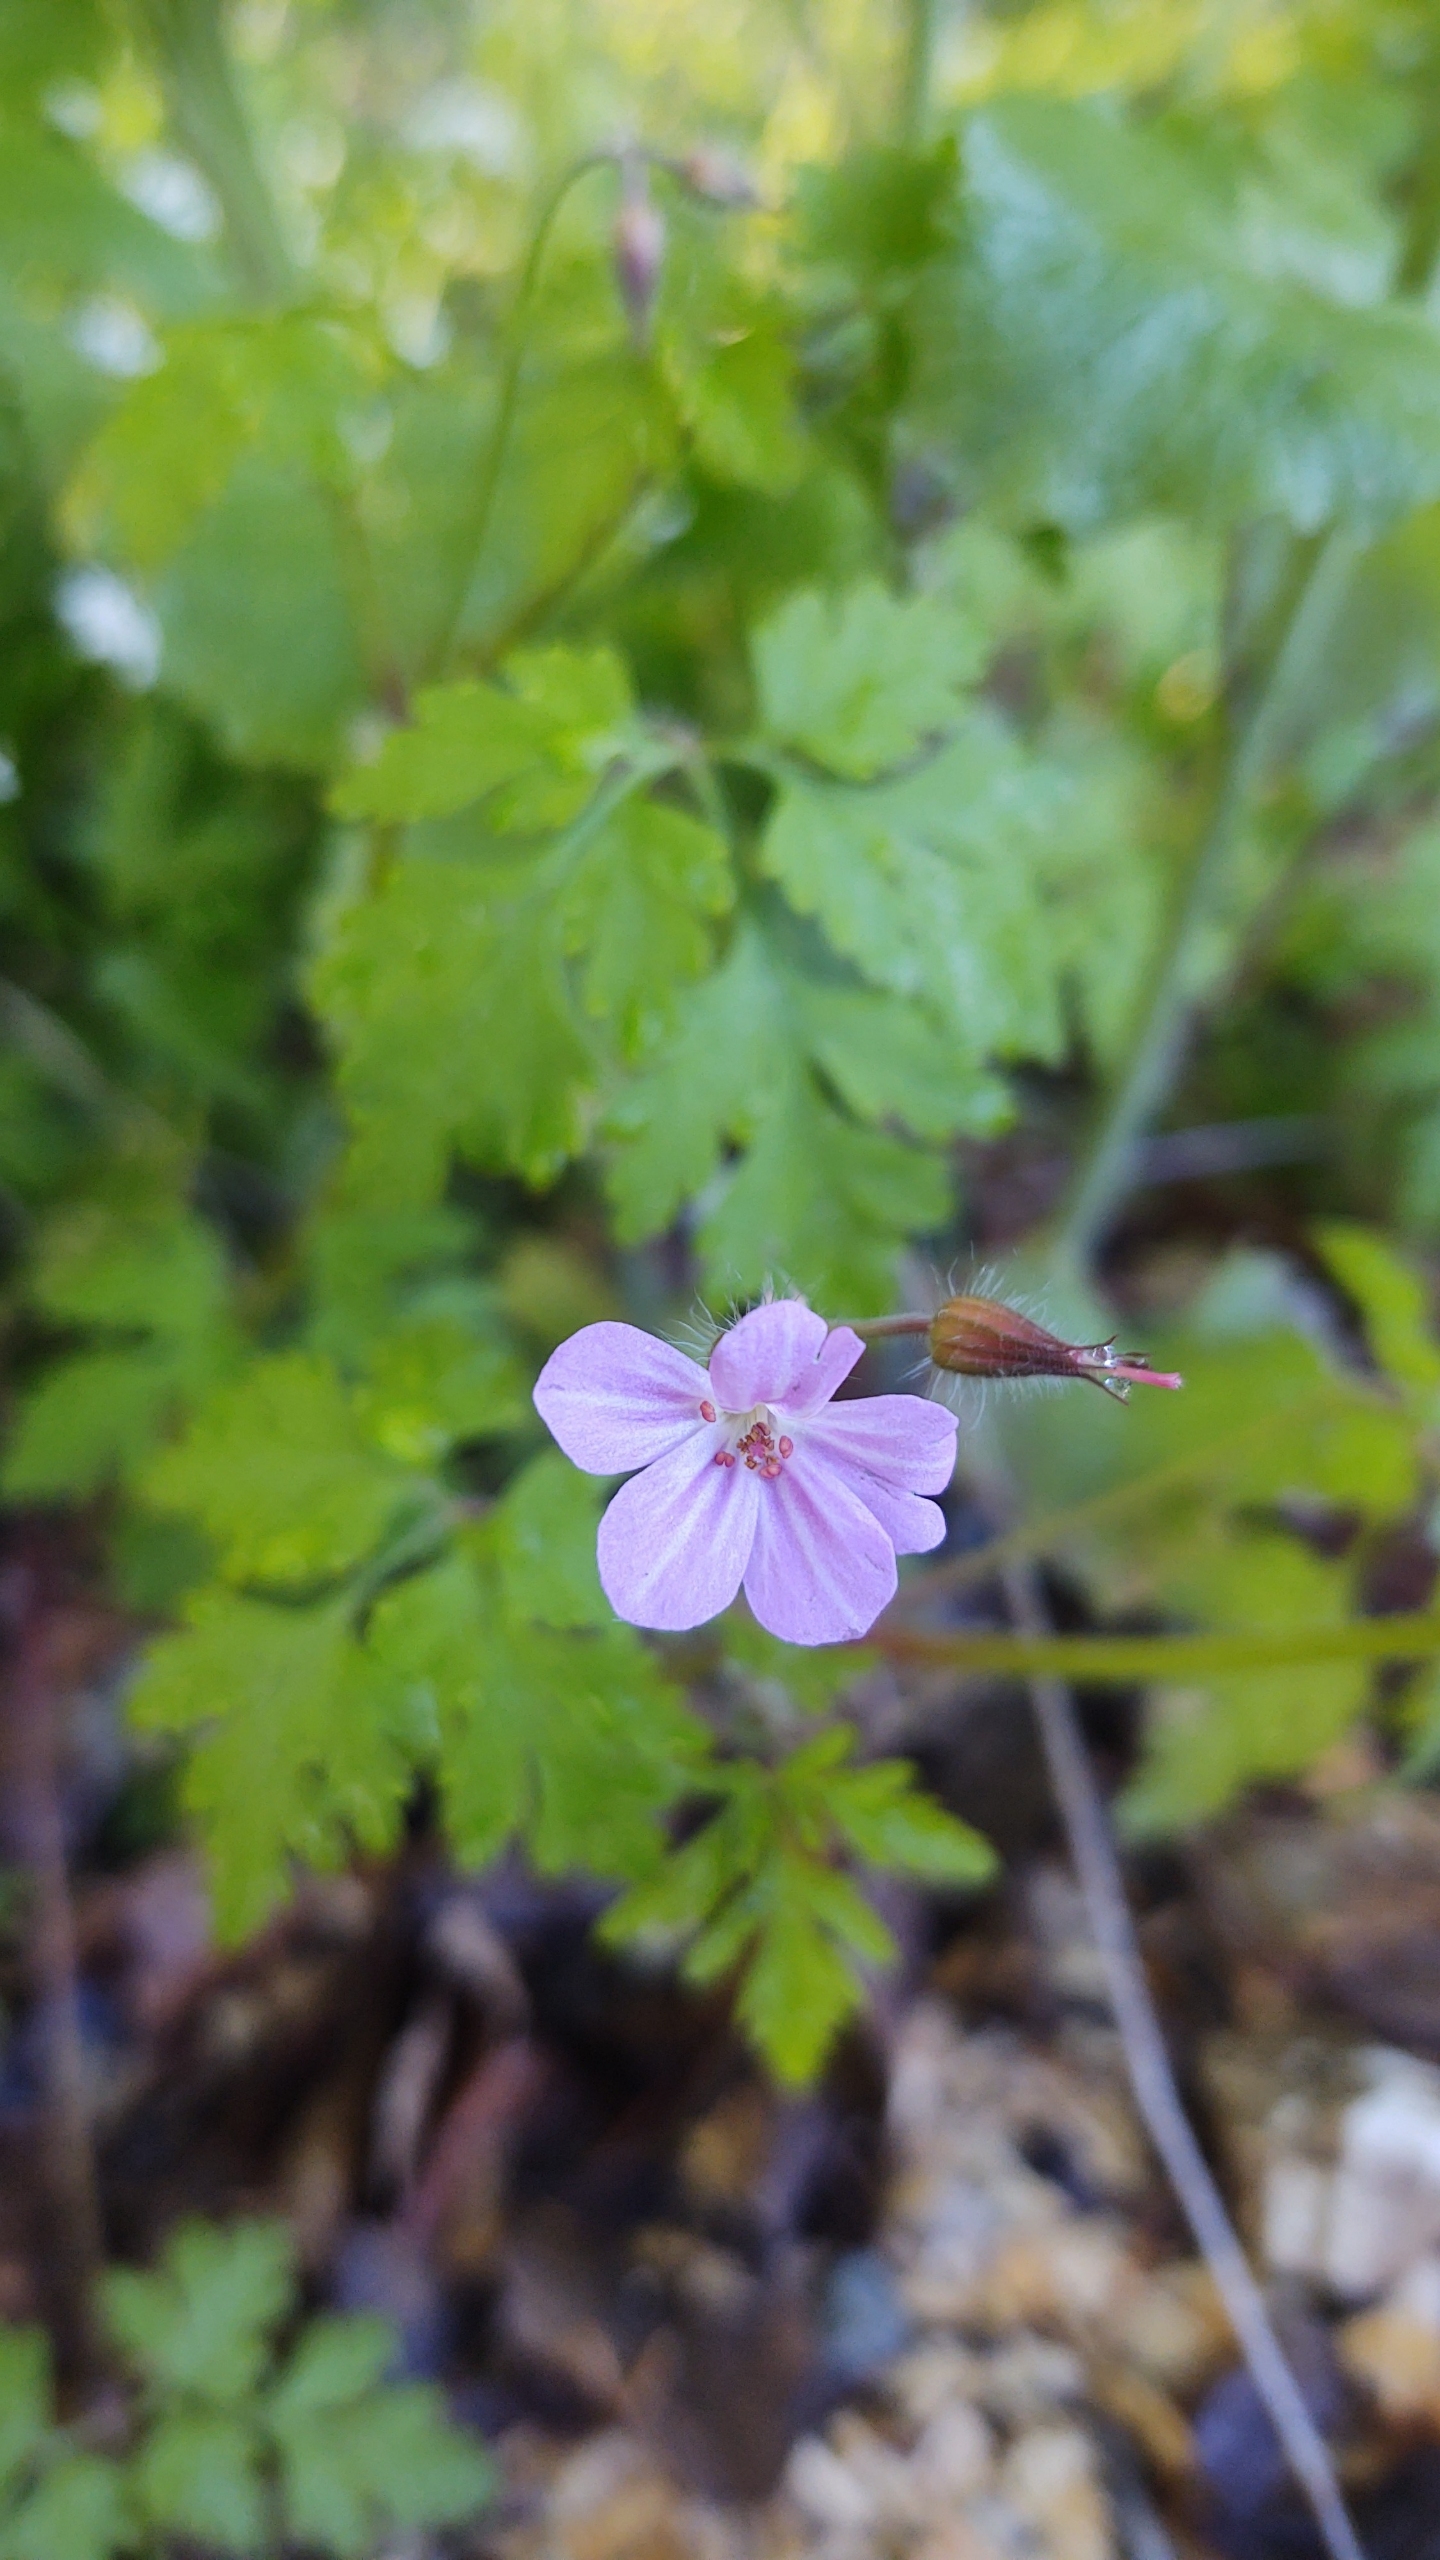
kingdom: Plantae
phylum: Tracheophyta
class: Magnoliopsida
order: Geraniales
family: Geraniaceae
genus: Geranium
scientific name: Geranium robertianum
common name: Stinkende storkenæb
